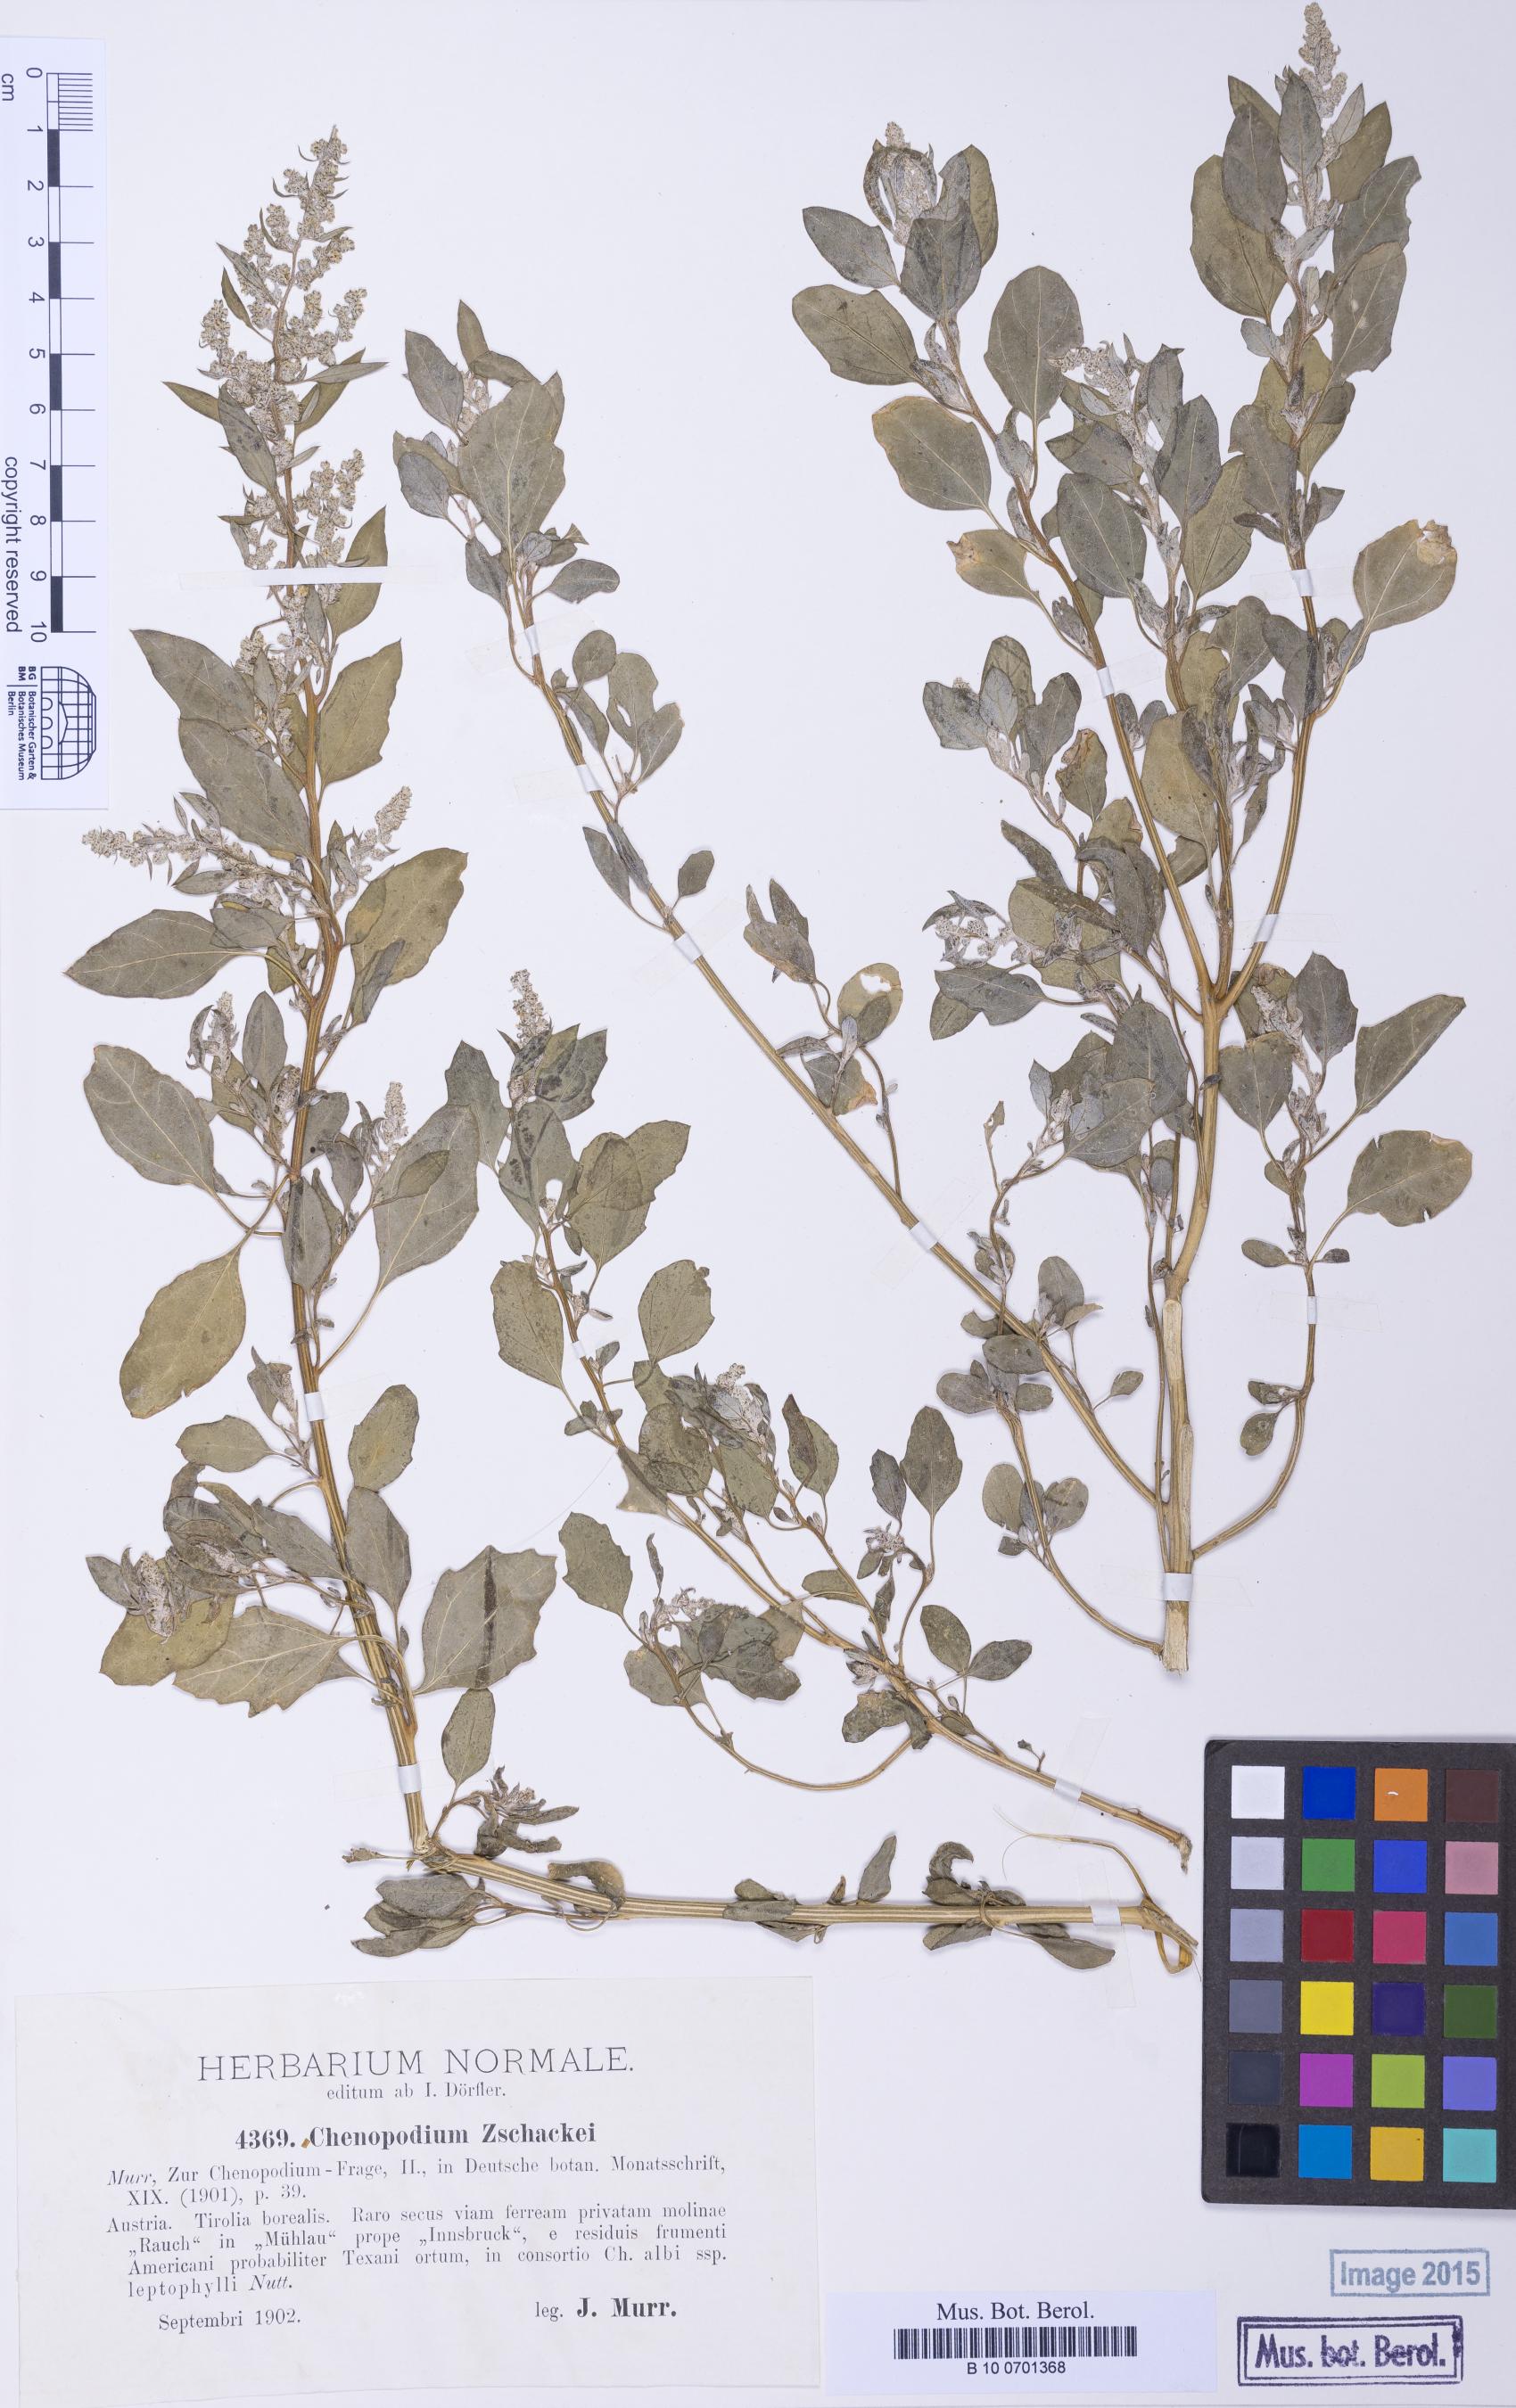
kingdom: Plantae
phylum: Tracheophyta
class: Magnoliopsida
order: Caryophyllales
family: Amaranthaceae
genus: Chenopodium
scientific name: Chenopodium berlandieri
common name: Pit-seed goosefoot
